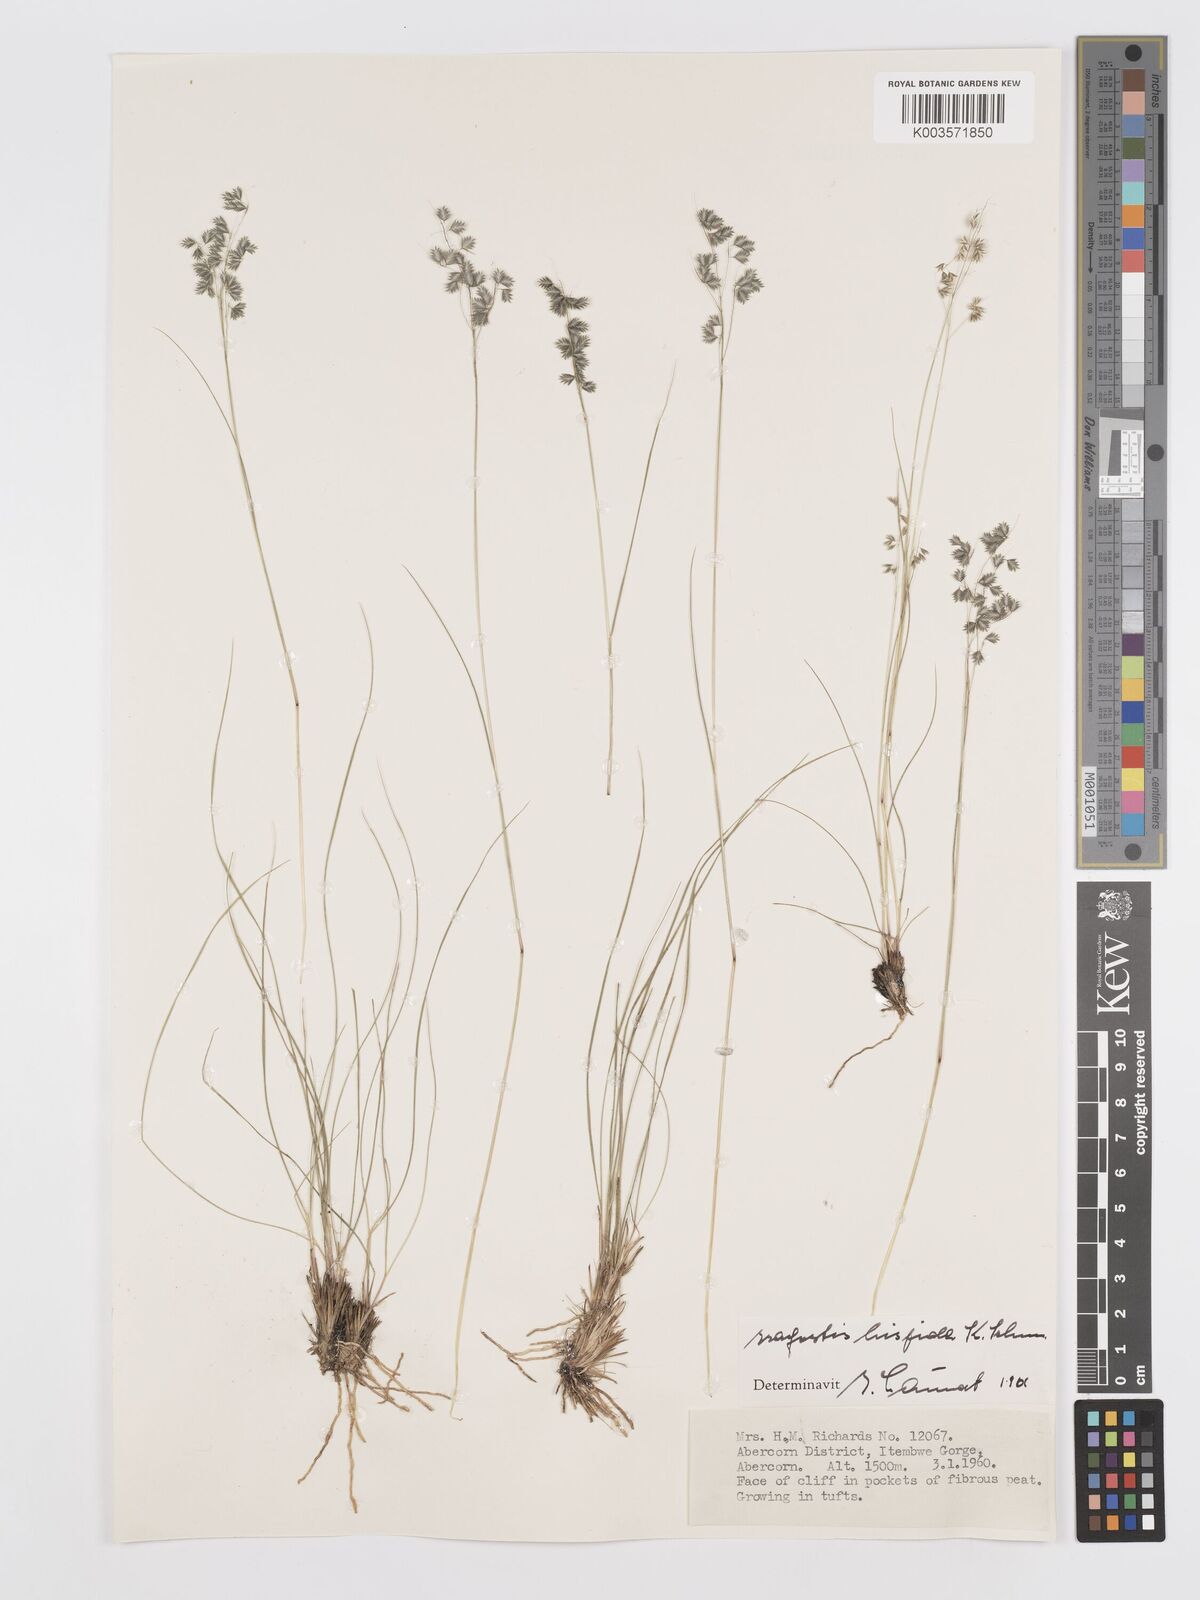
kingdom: Plantae
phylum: Tracheophyta
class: Liliopsida
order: Poales
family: Poaceae
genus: Eragrostis
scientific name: Eragrostis hispida
